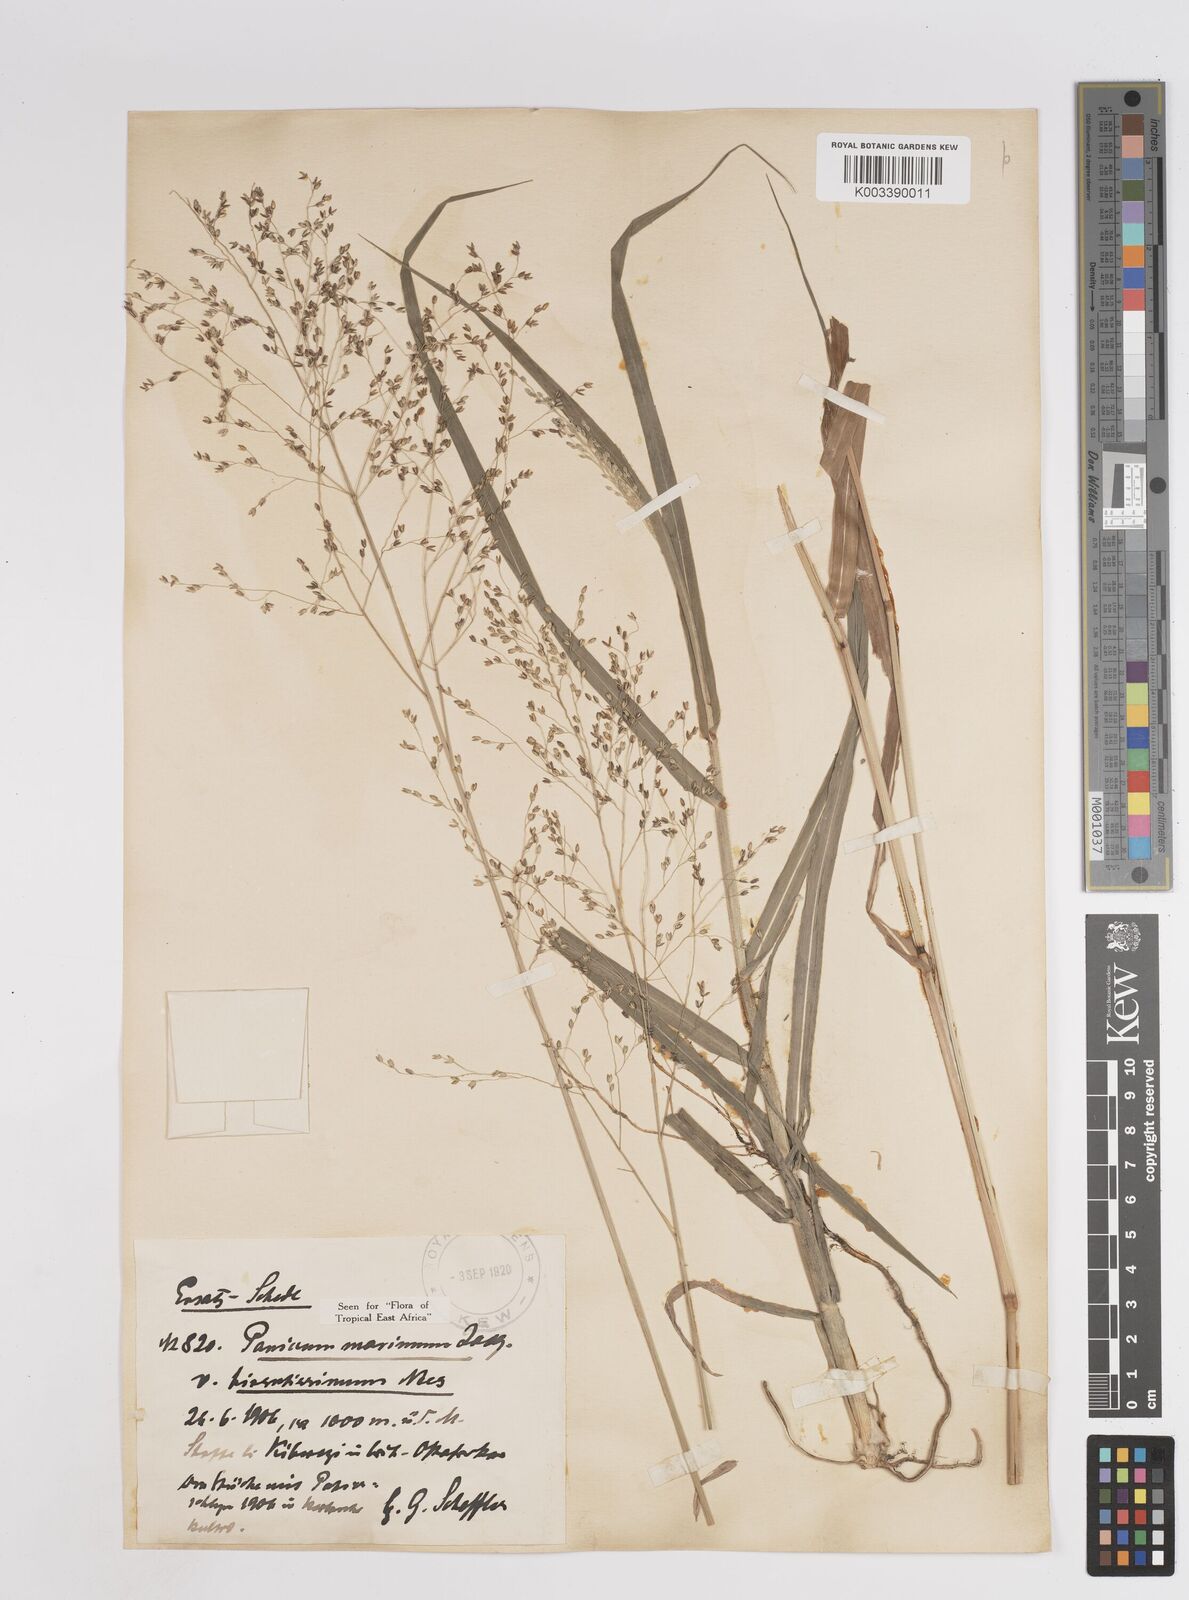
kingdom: Plantae
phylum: Tracheophyta
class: Liliopsida
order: Poales
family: Poaceae
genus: Megathyrsus
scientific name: Megathyrsus maximus
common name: Guineagrass
